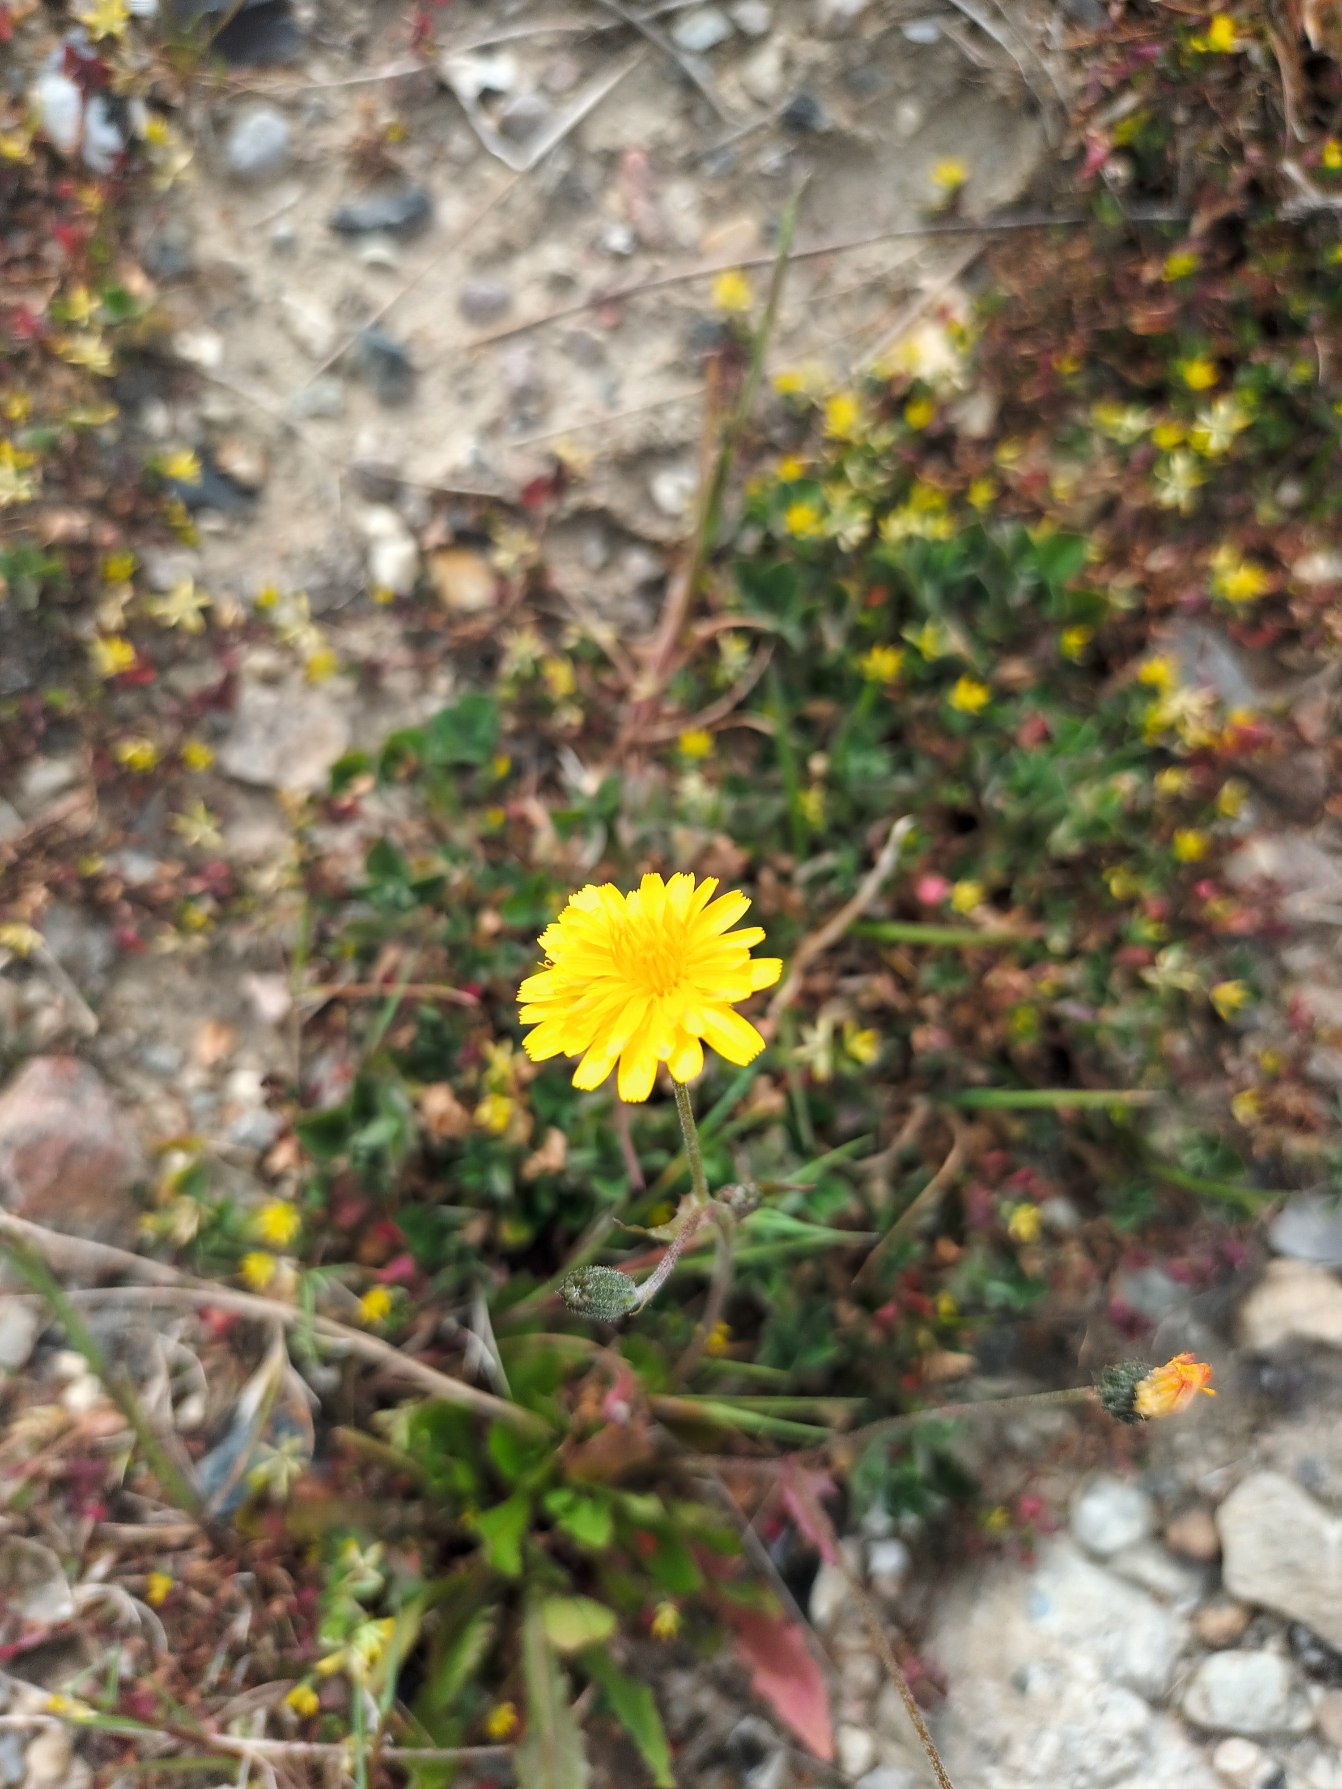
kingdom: Plantae
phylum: Tracheophyta
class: Magnoliopsida
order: Asterales
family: Asteraceae
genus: Crepis
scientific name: Crepis capillaris
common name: Grøn høgeskæg
